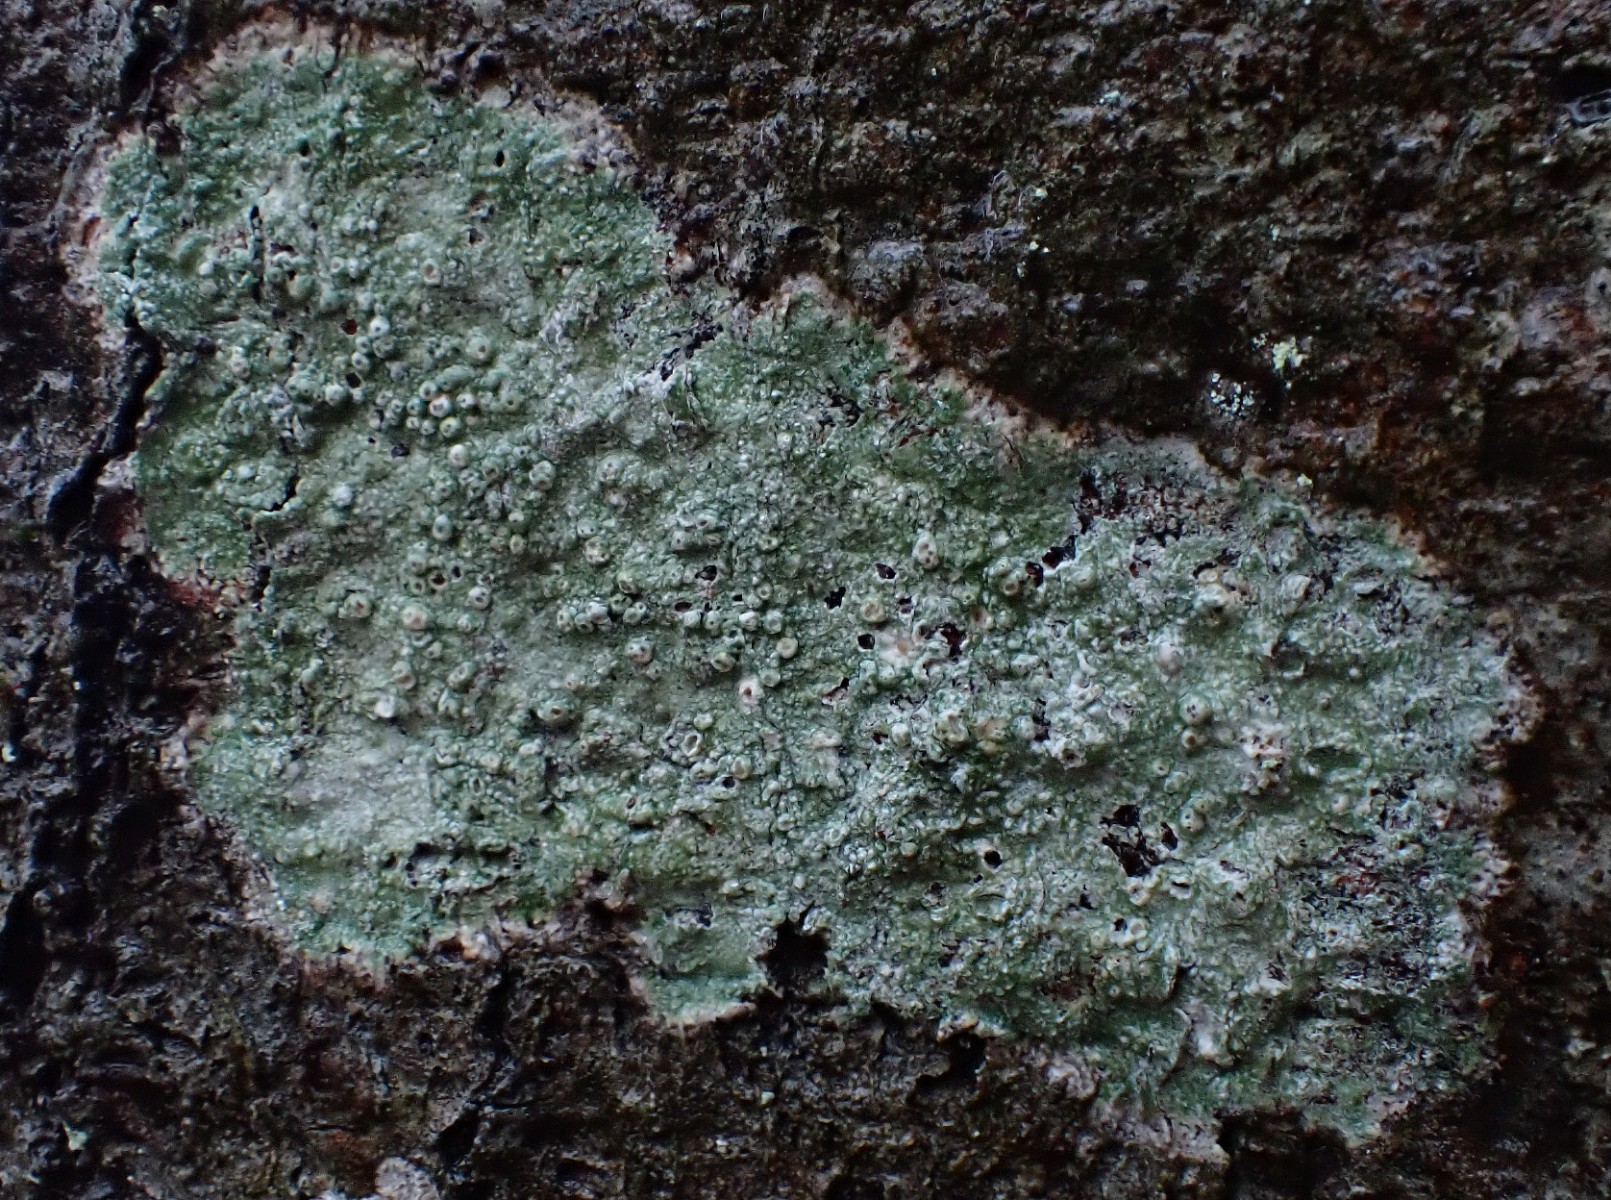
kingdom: Fungi
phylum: Ascomycota
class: Lecanoromycetes
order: Pertusariales
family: Pertusariaceae
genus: Pertusaria
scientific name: Pertusaria pertusa
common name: almindelig prikvortelav
